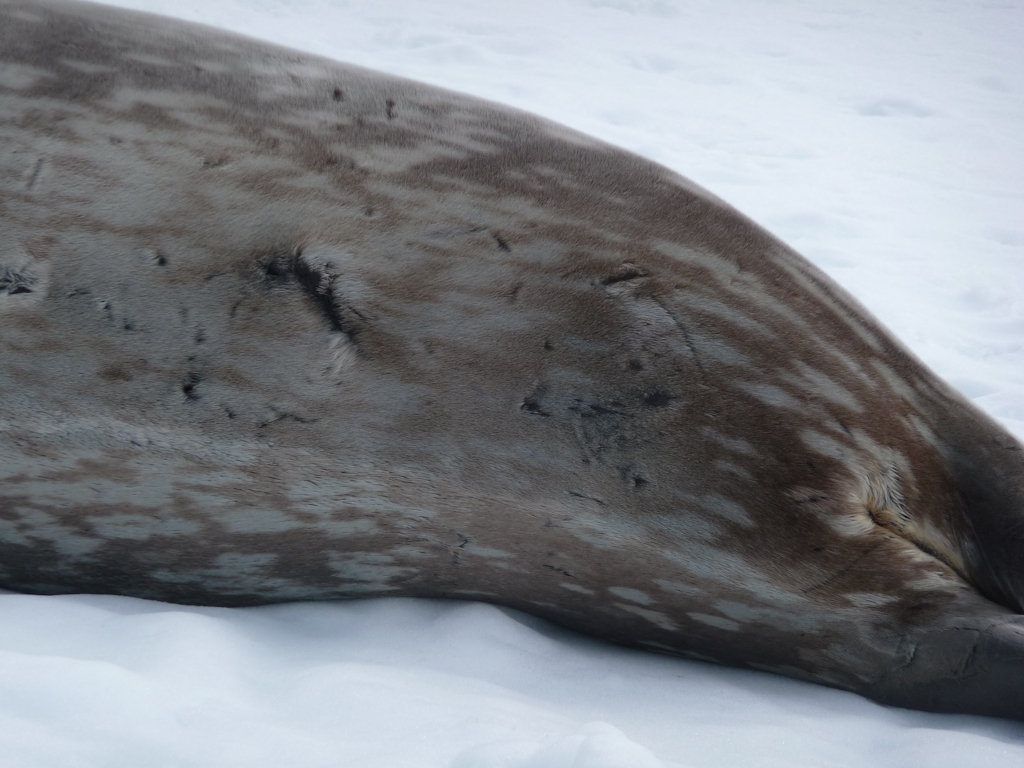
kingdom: Animalia
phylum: Chordata
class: Mammalia
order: Carnivora
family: Phocidae
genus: Leptonychotes
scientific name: Leptonychotes weddellii
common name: Weddell Seal
